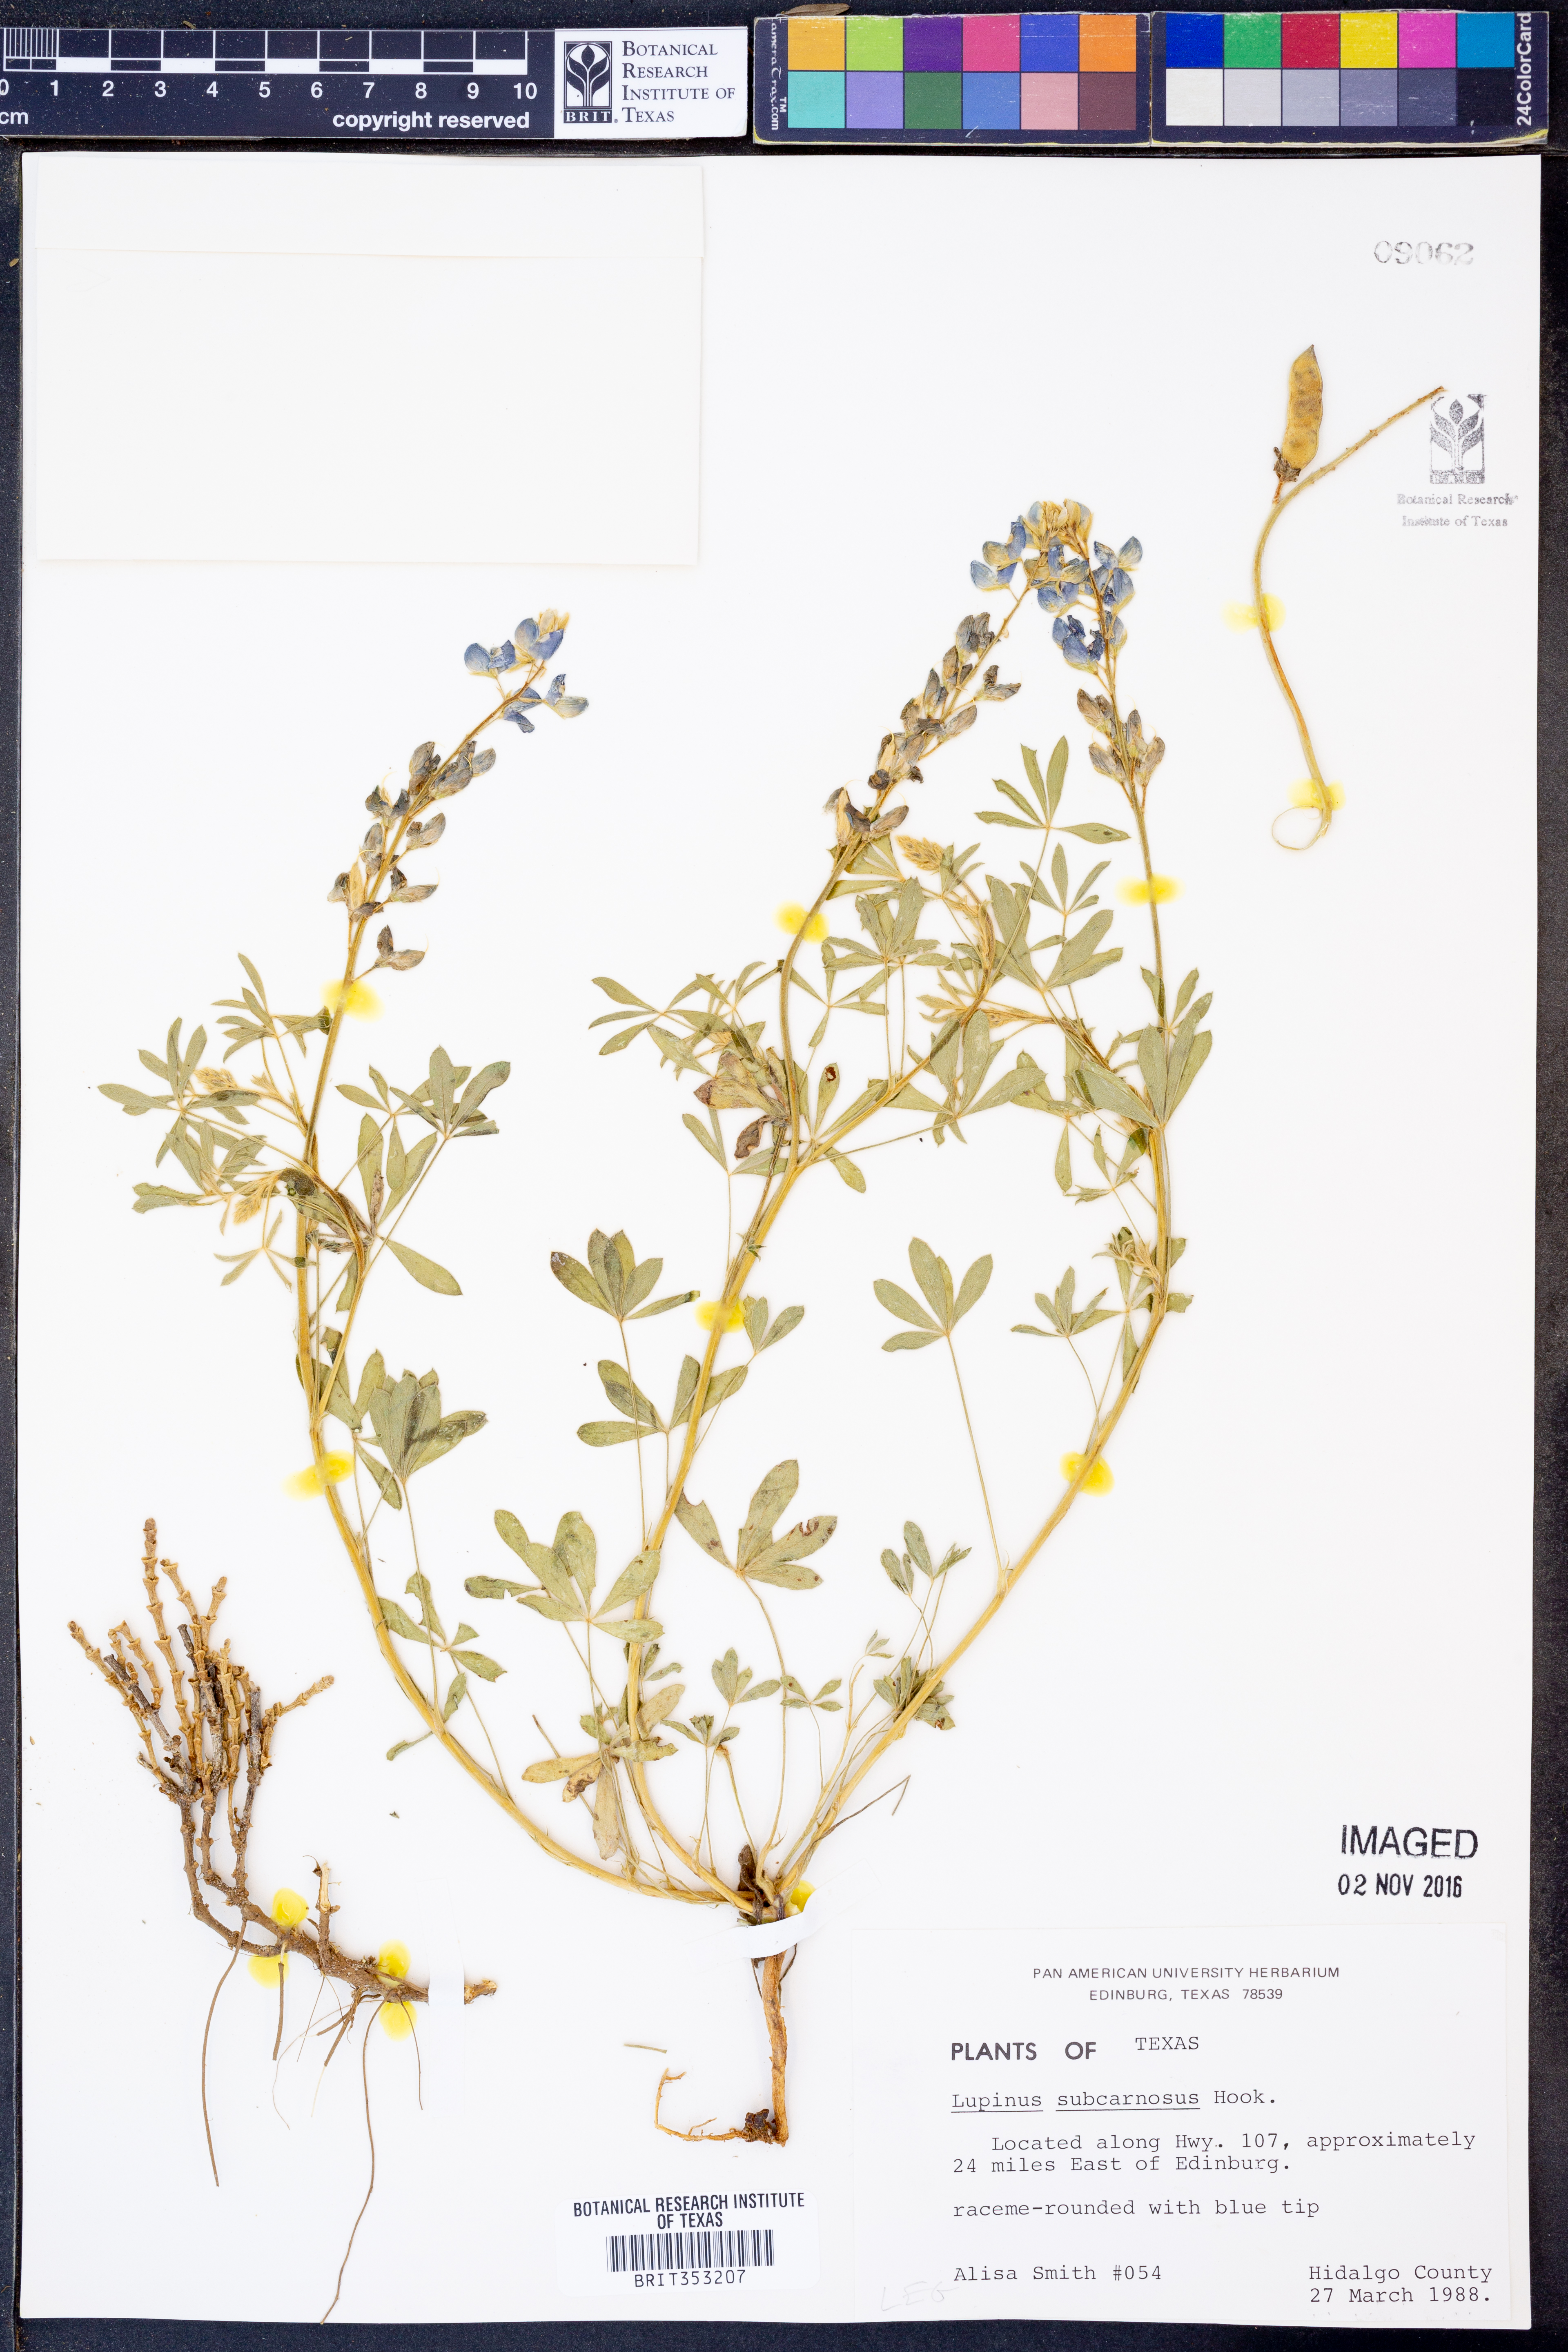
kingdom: Plantae
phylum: Tracheophyta
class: Magnoliopsida
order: Fabales
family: Fabaceae
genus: Lupinus
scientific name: Lupinus subcarnosus
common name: Texas bluebonnet
